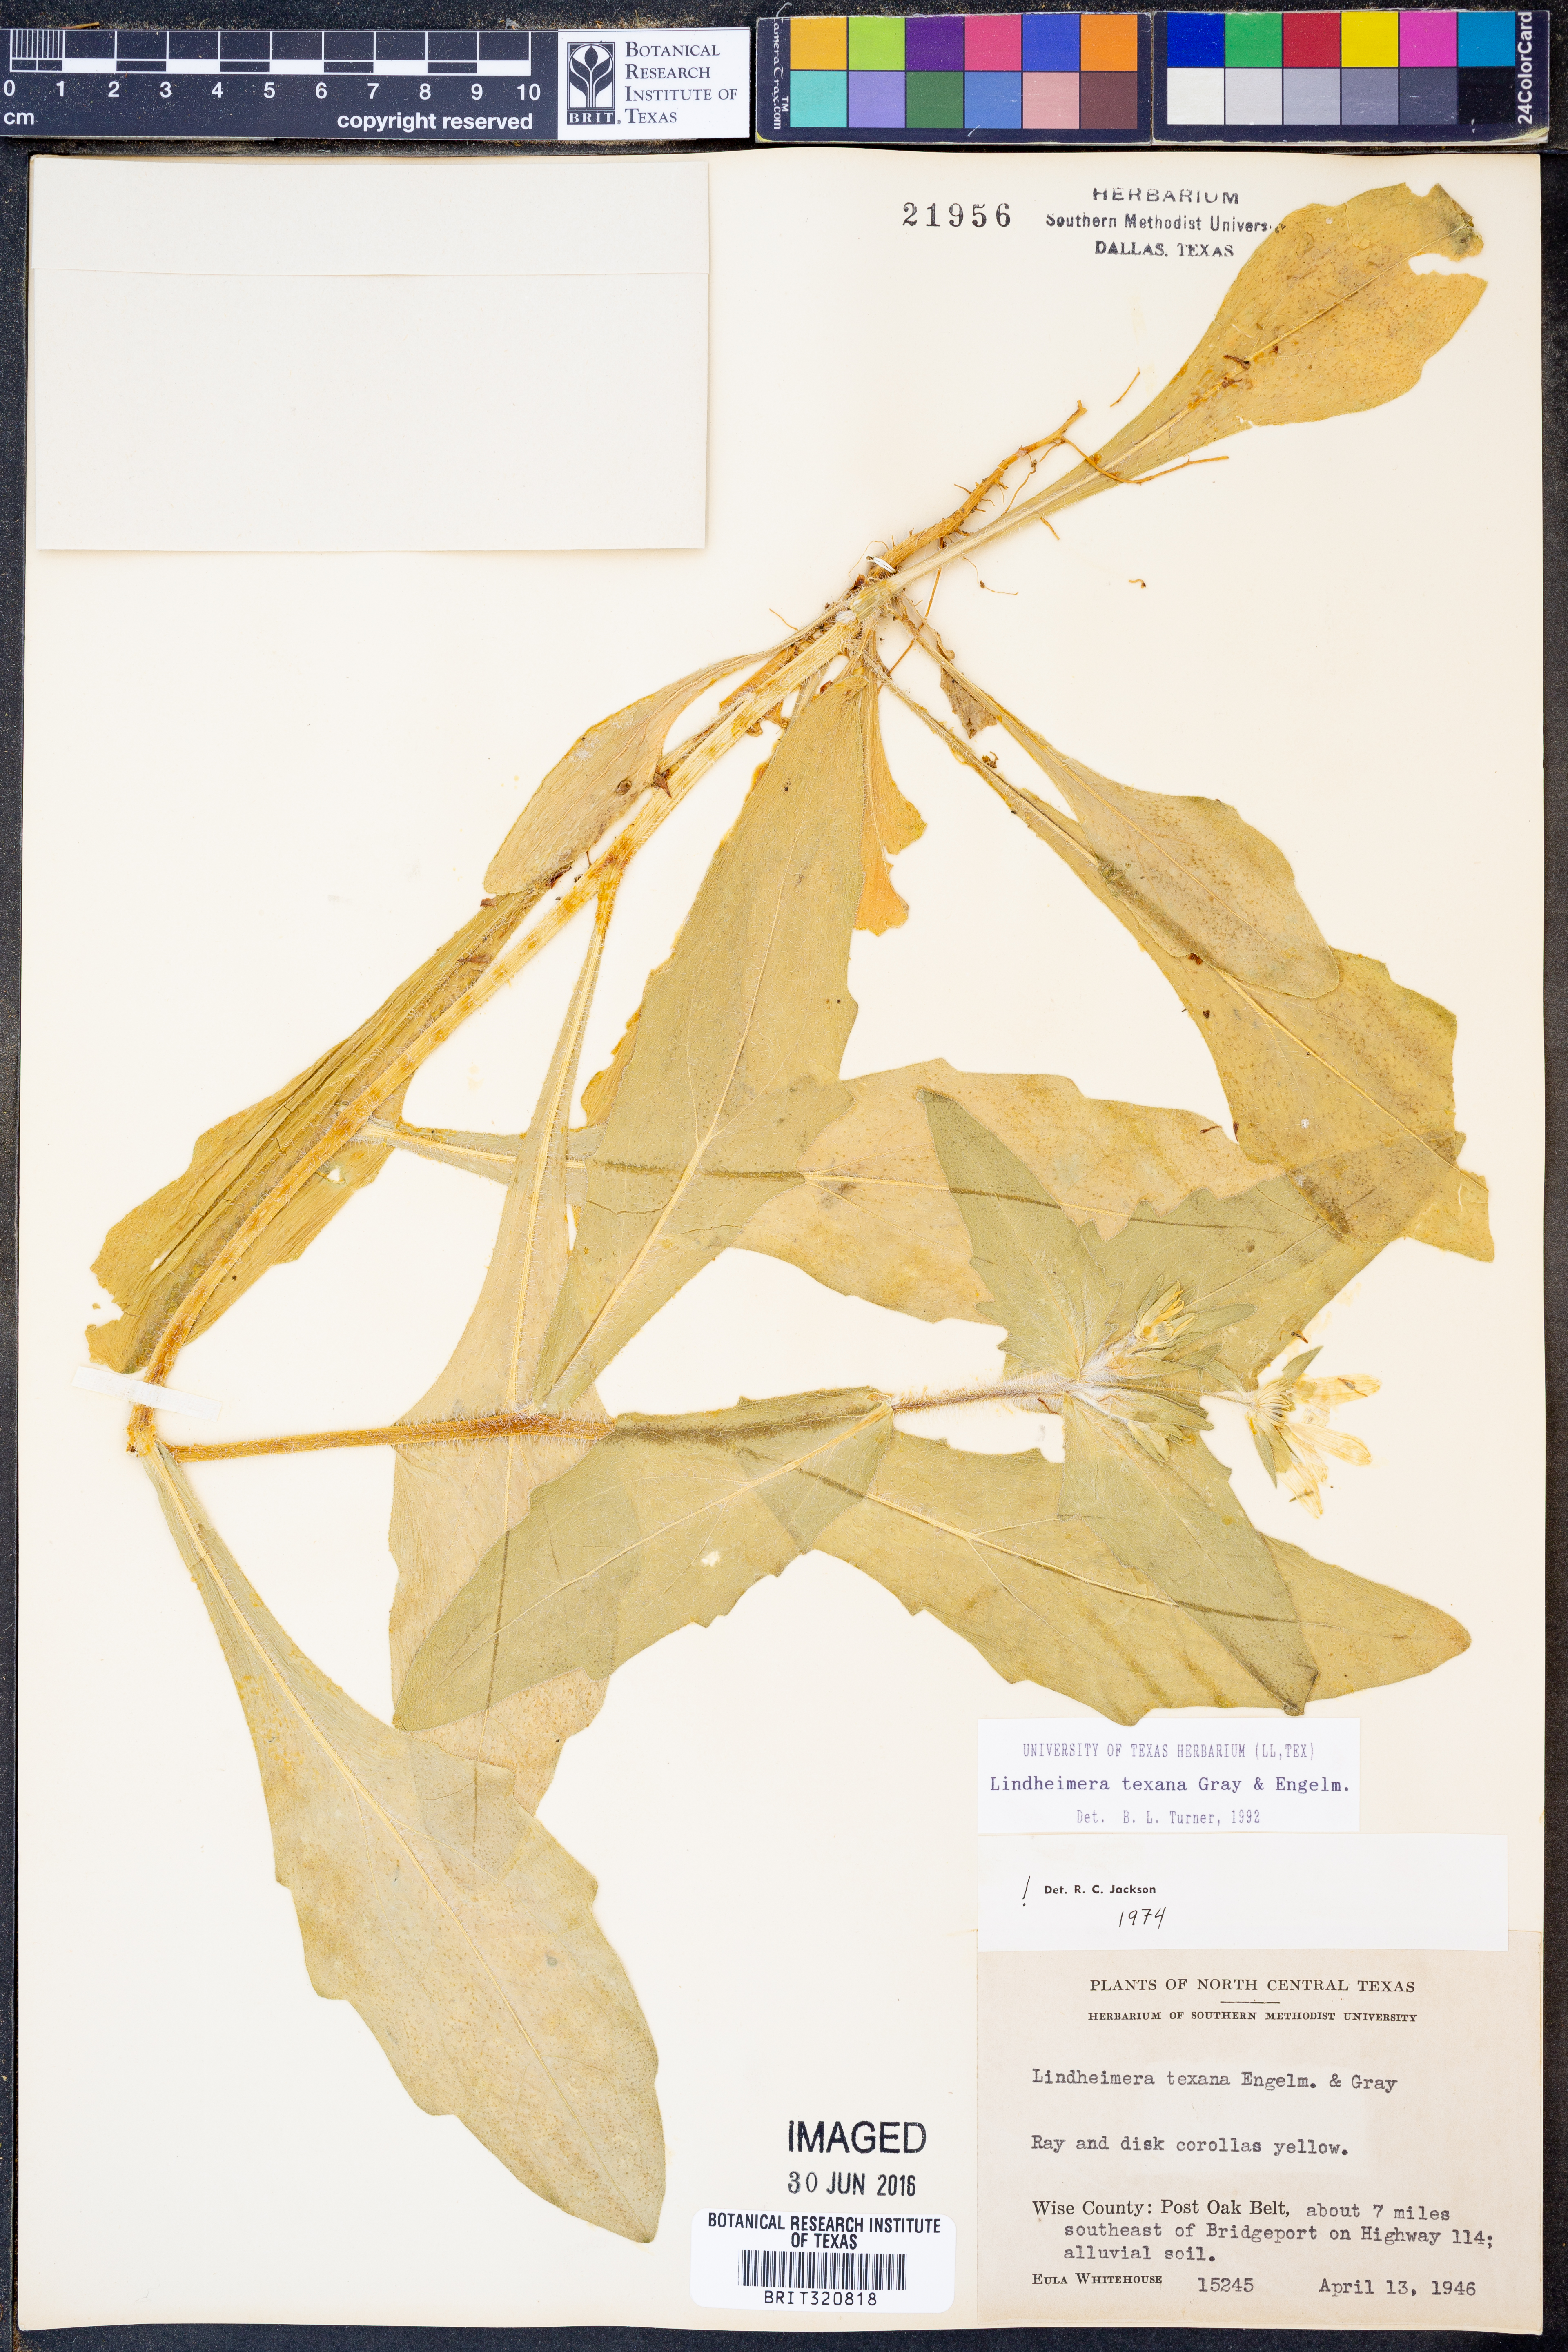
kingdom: Plantae
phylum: Tracheophyta
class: Magnoliopsida
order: Asterales
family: Asteraceae
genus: Lindheimera
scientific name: Lindheimera texana
